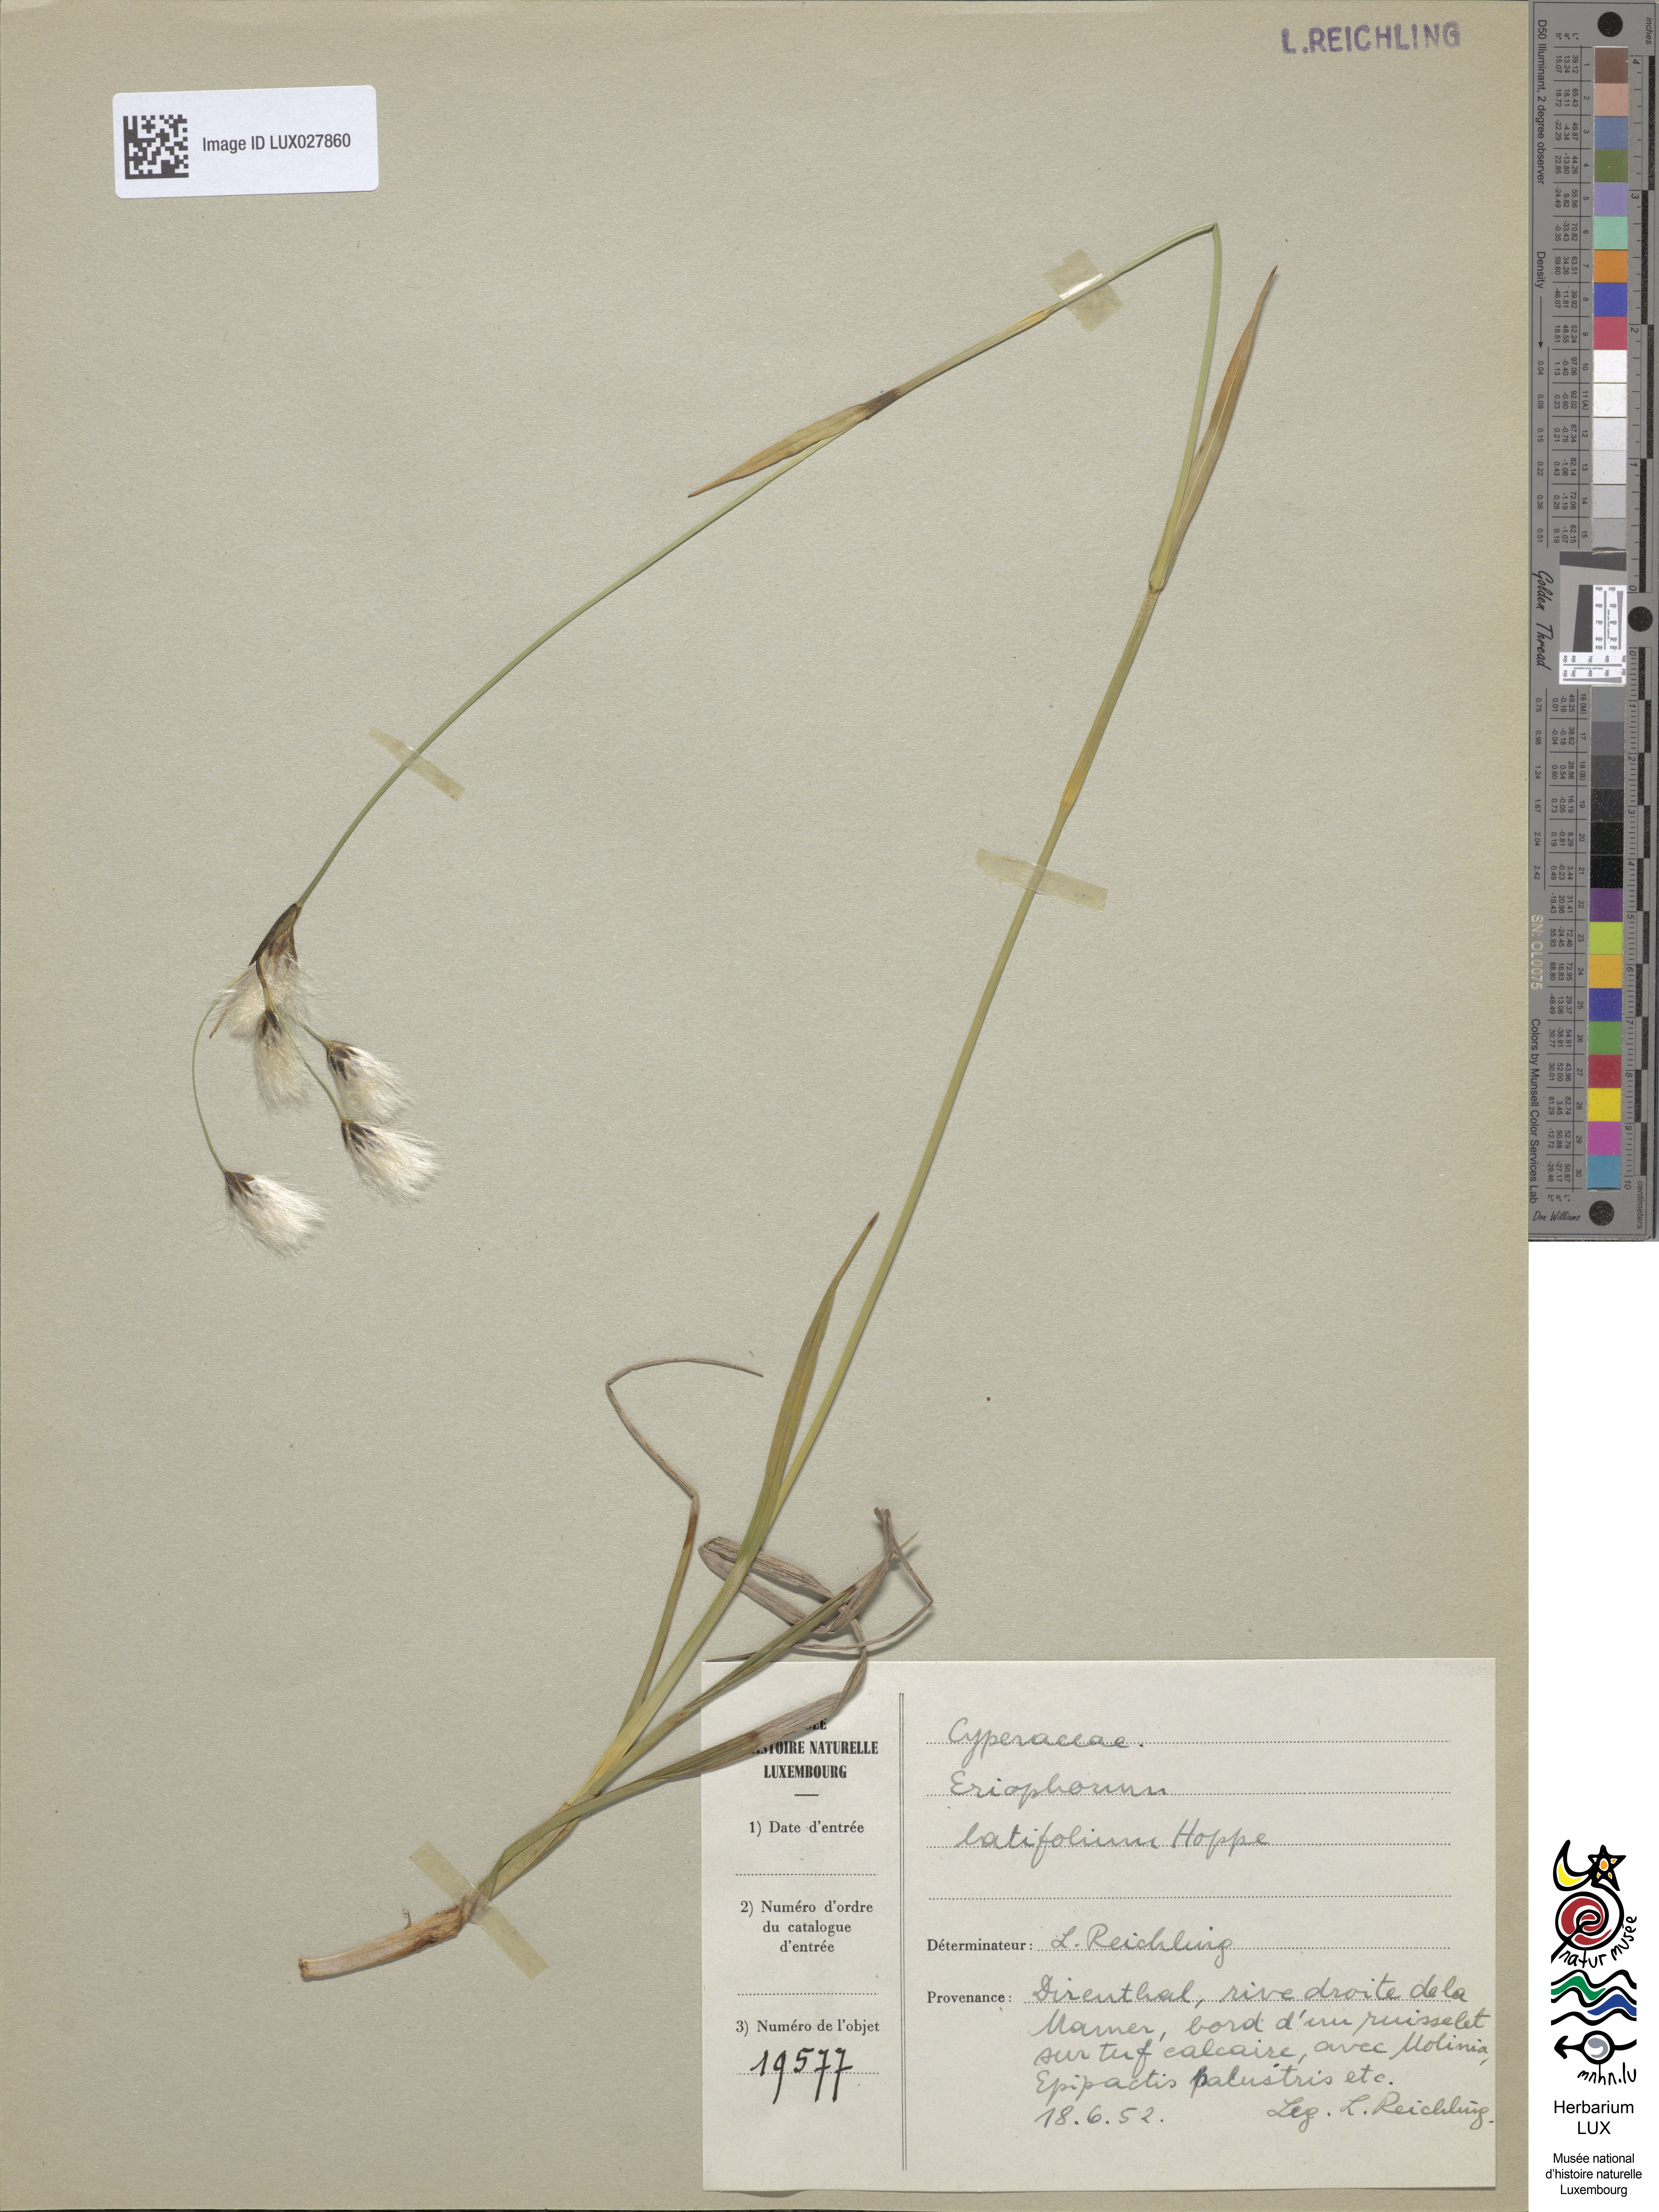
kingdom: Plantae
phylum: Tracheophyta
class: Liliopsida
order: Poales
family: Cyperaceae
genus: Eriophorum
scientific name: Eriophorum latifolium
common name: Broad-leaved cottongrass
